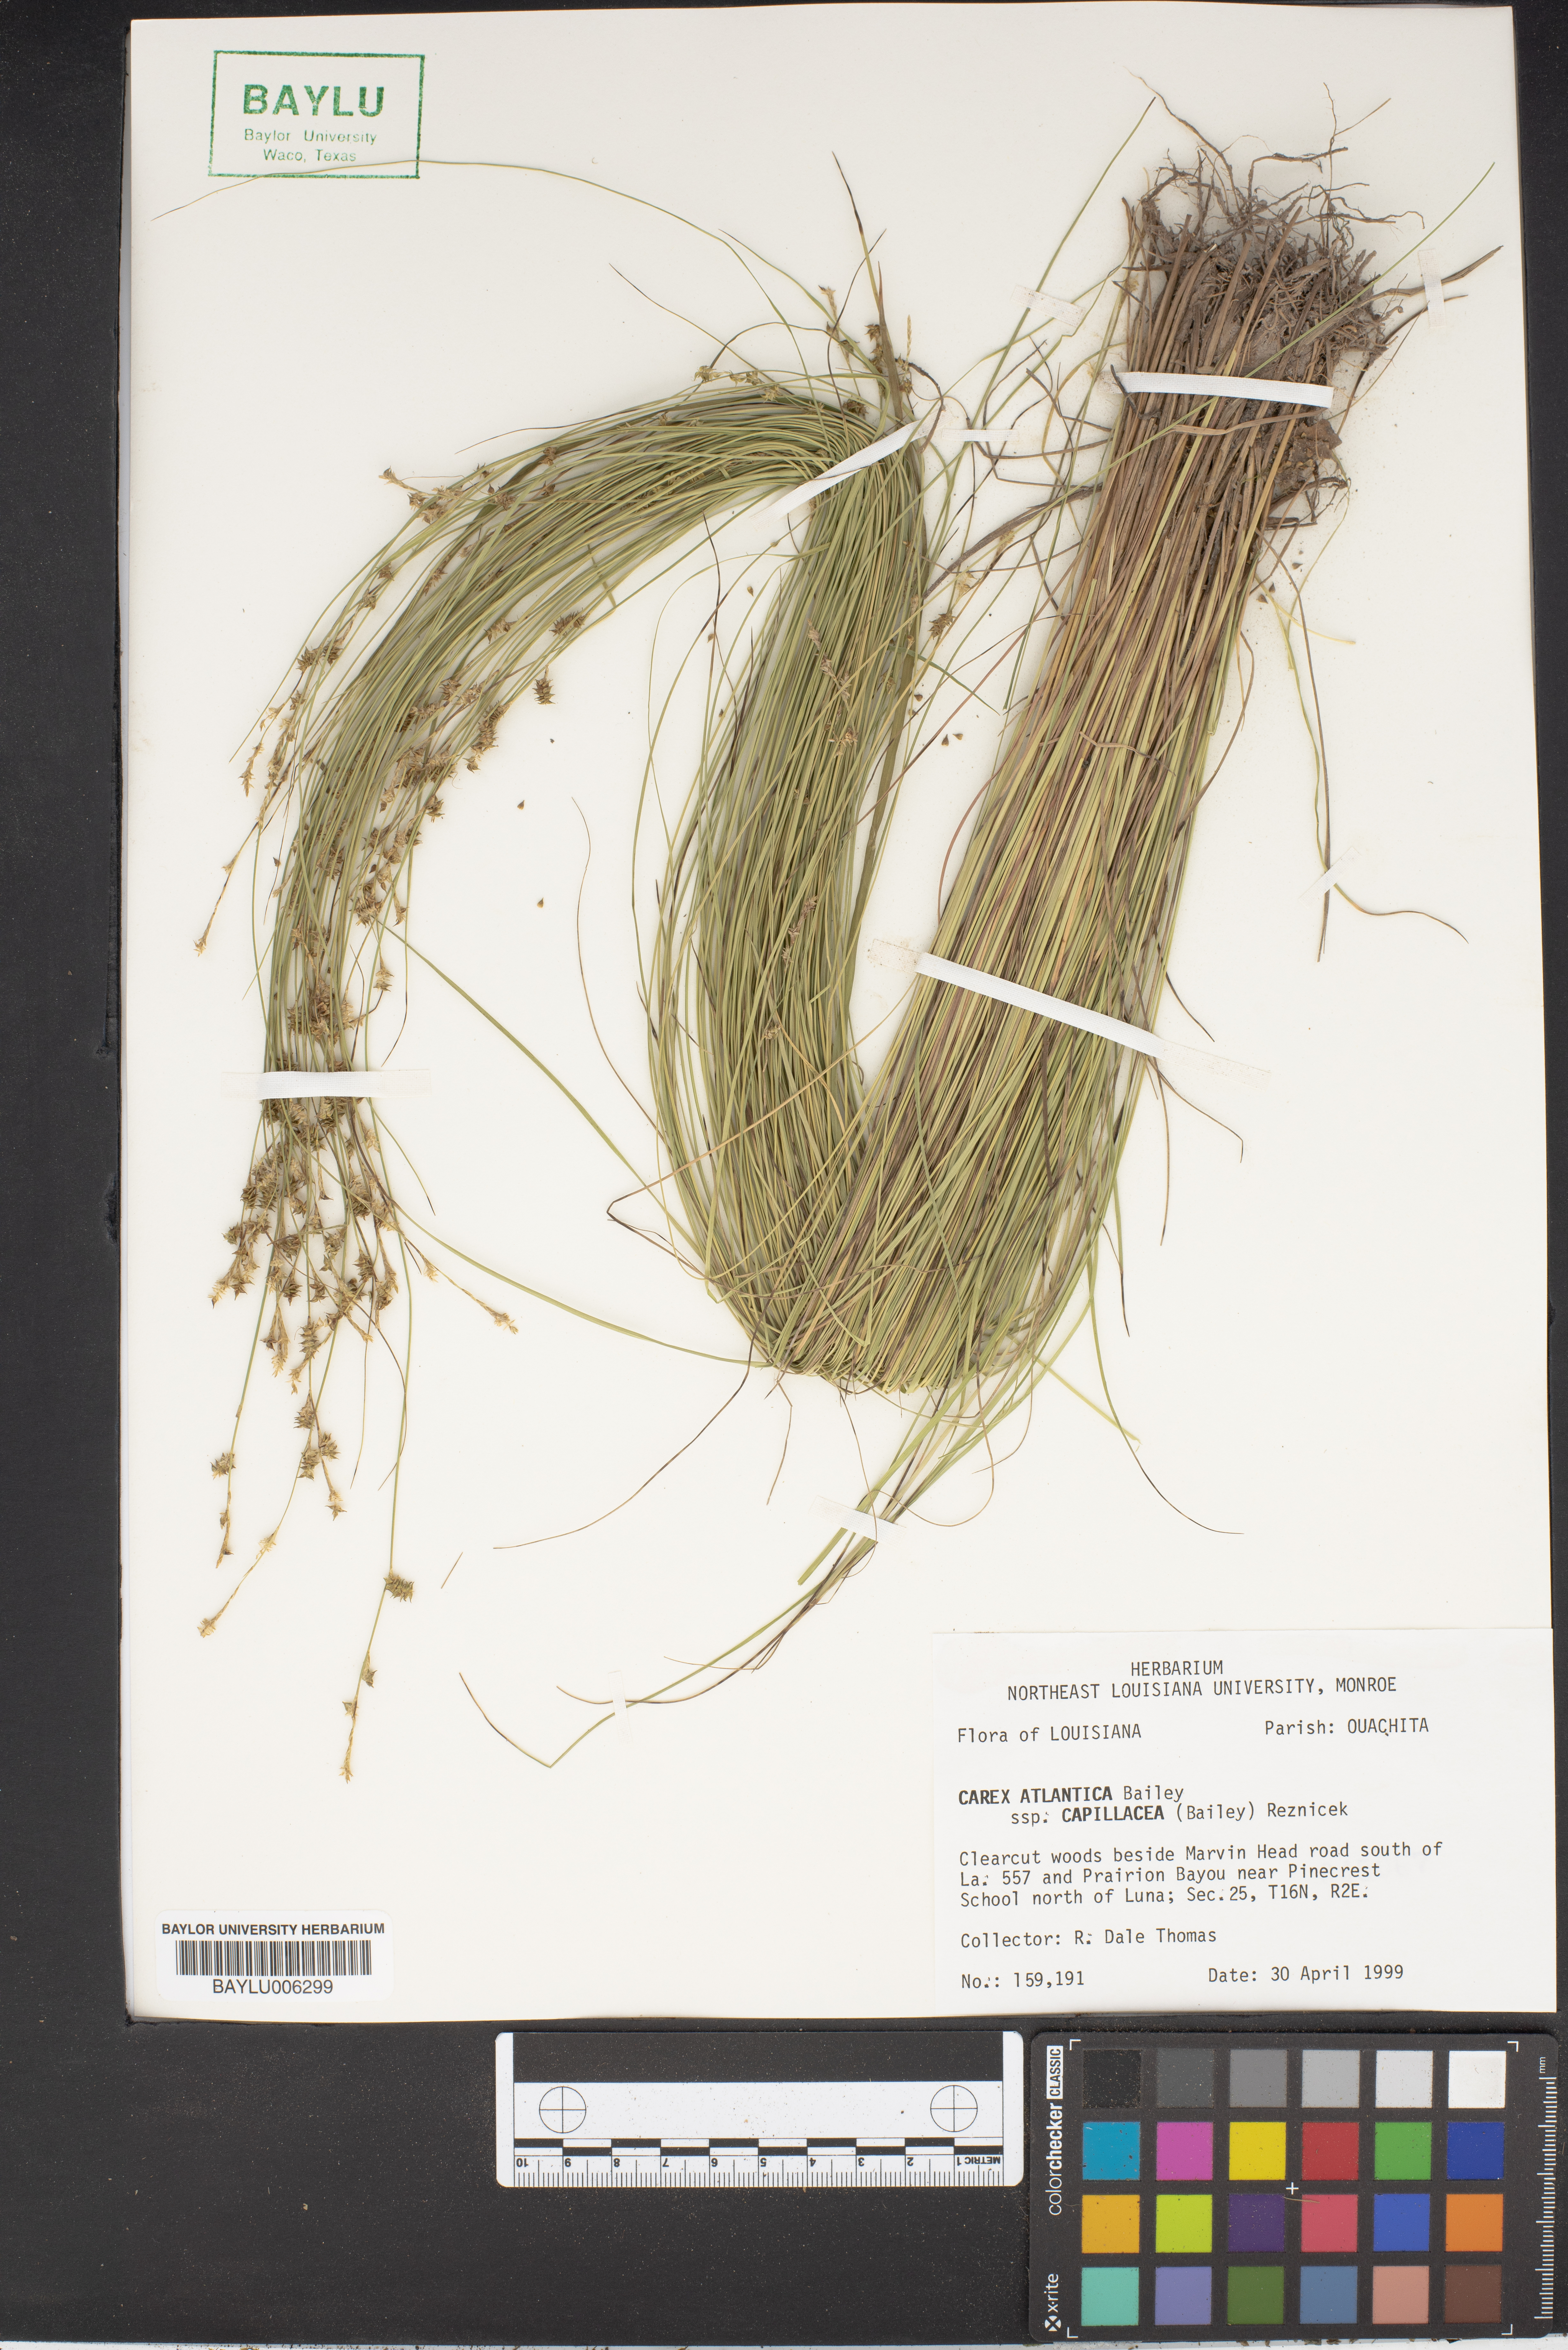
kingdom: Plantae
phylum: Tracheophyta
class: Liliopsida
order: Poales
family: Cyperaceae
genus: Carex
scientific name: Carex atlantica
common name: Atlantic sedge
